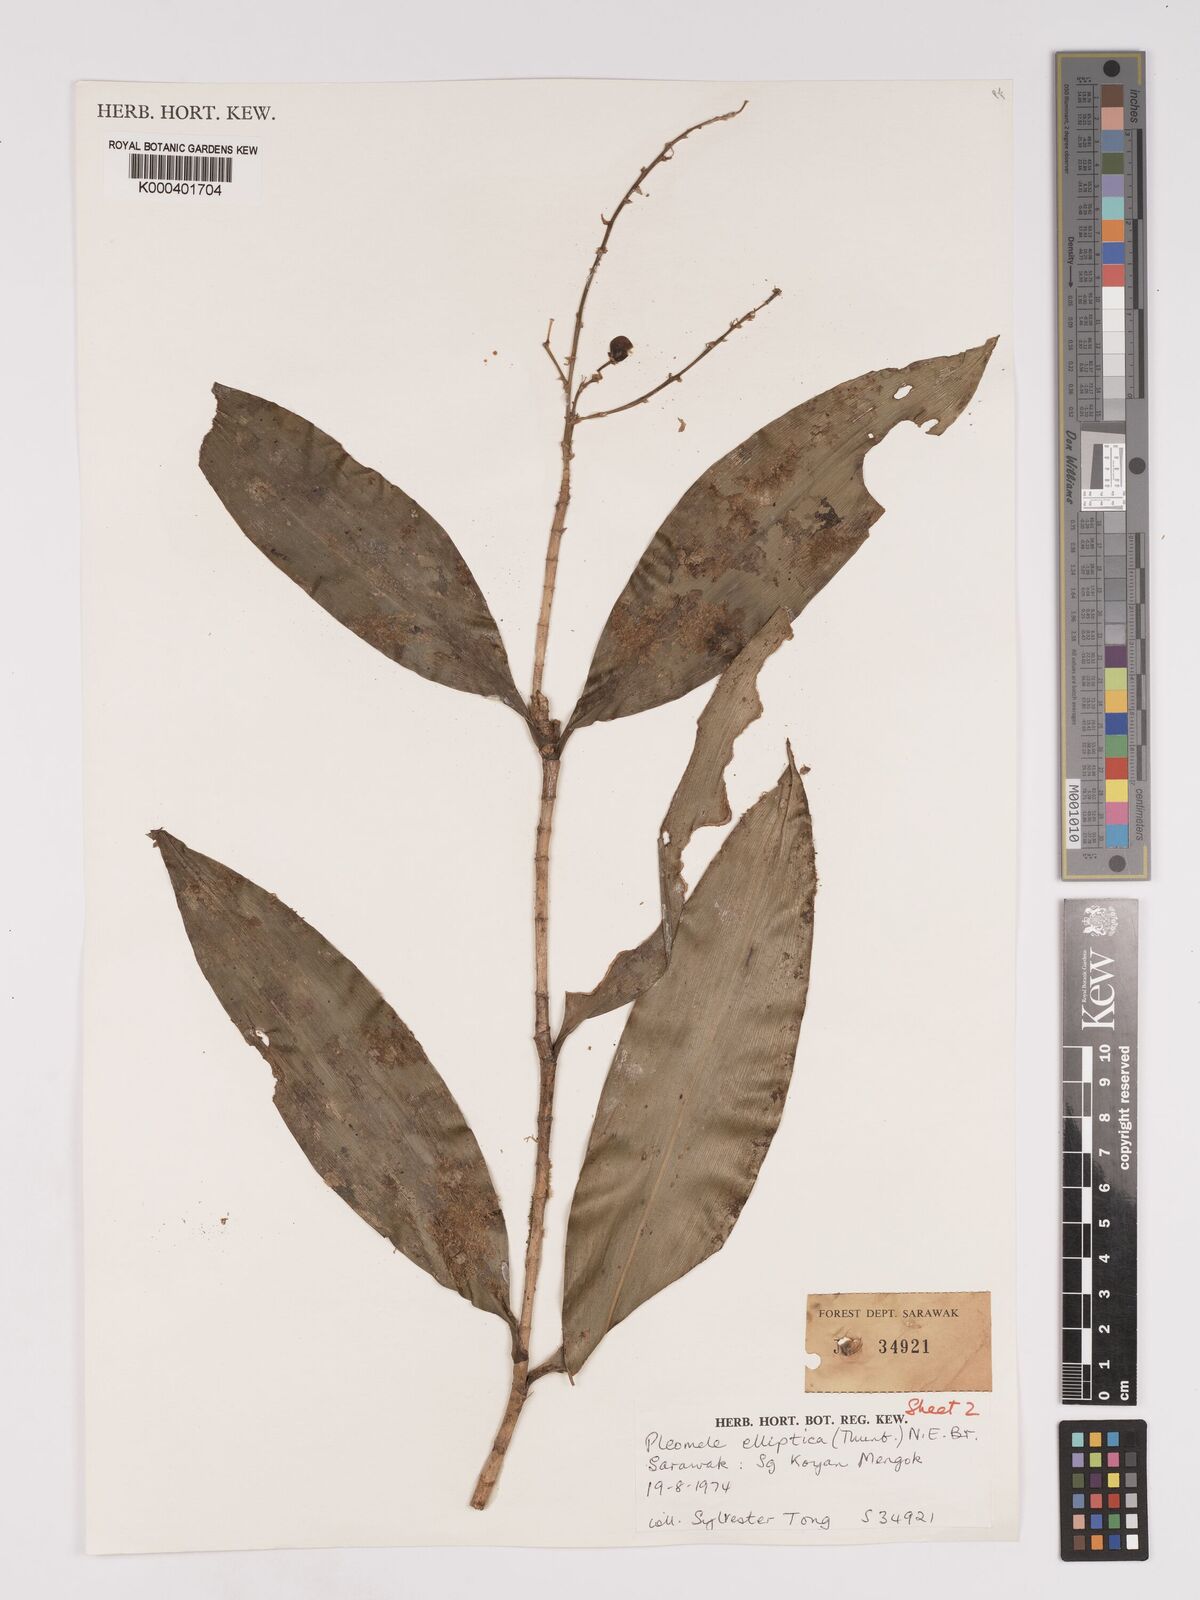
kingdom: Plantae
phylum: Tracheophyta
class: Liliopsida
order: Asparagales
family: Asparagaceae
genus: Dracaena
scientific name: Dracaena elliptica
